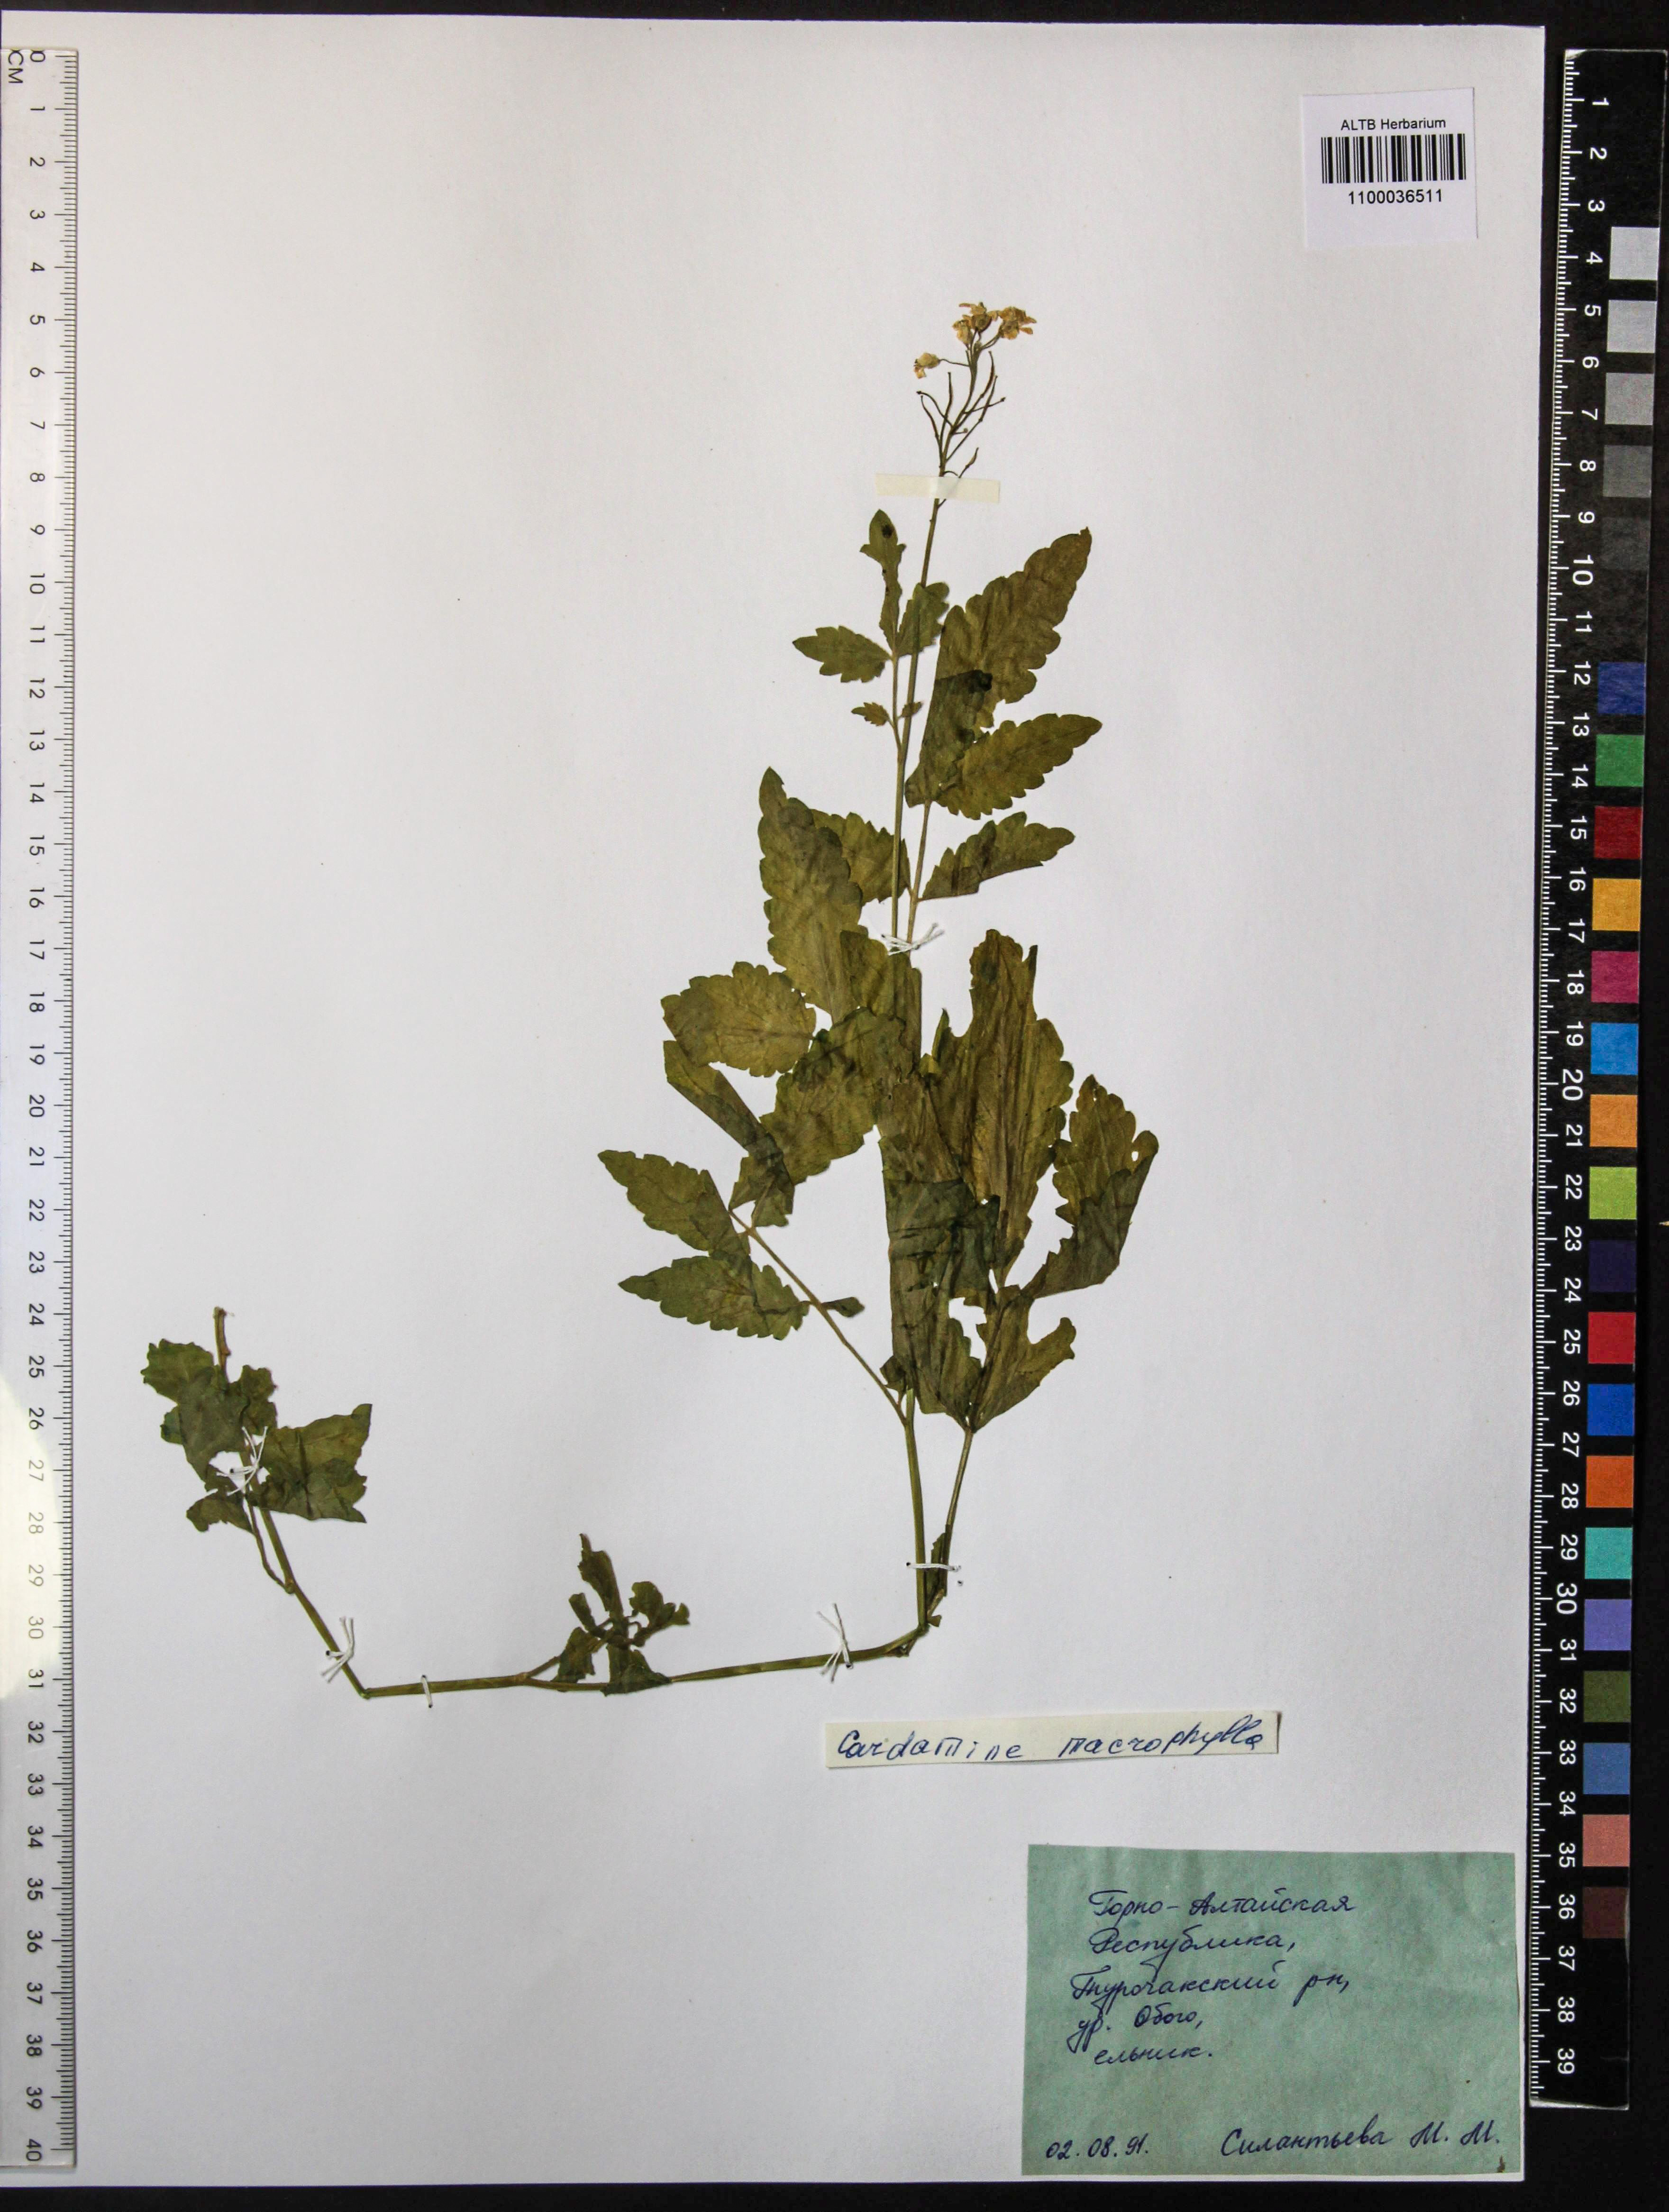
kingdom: Plantae
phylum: Tracheophyta
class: Magnoliopsida
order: Brassicales
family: Brassicaceae
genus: Cardamine
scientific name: Cardamine macrophylla
